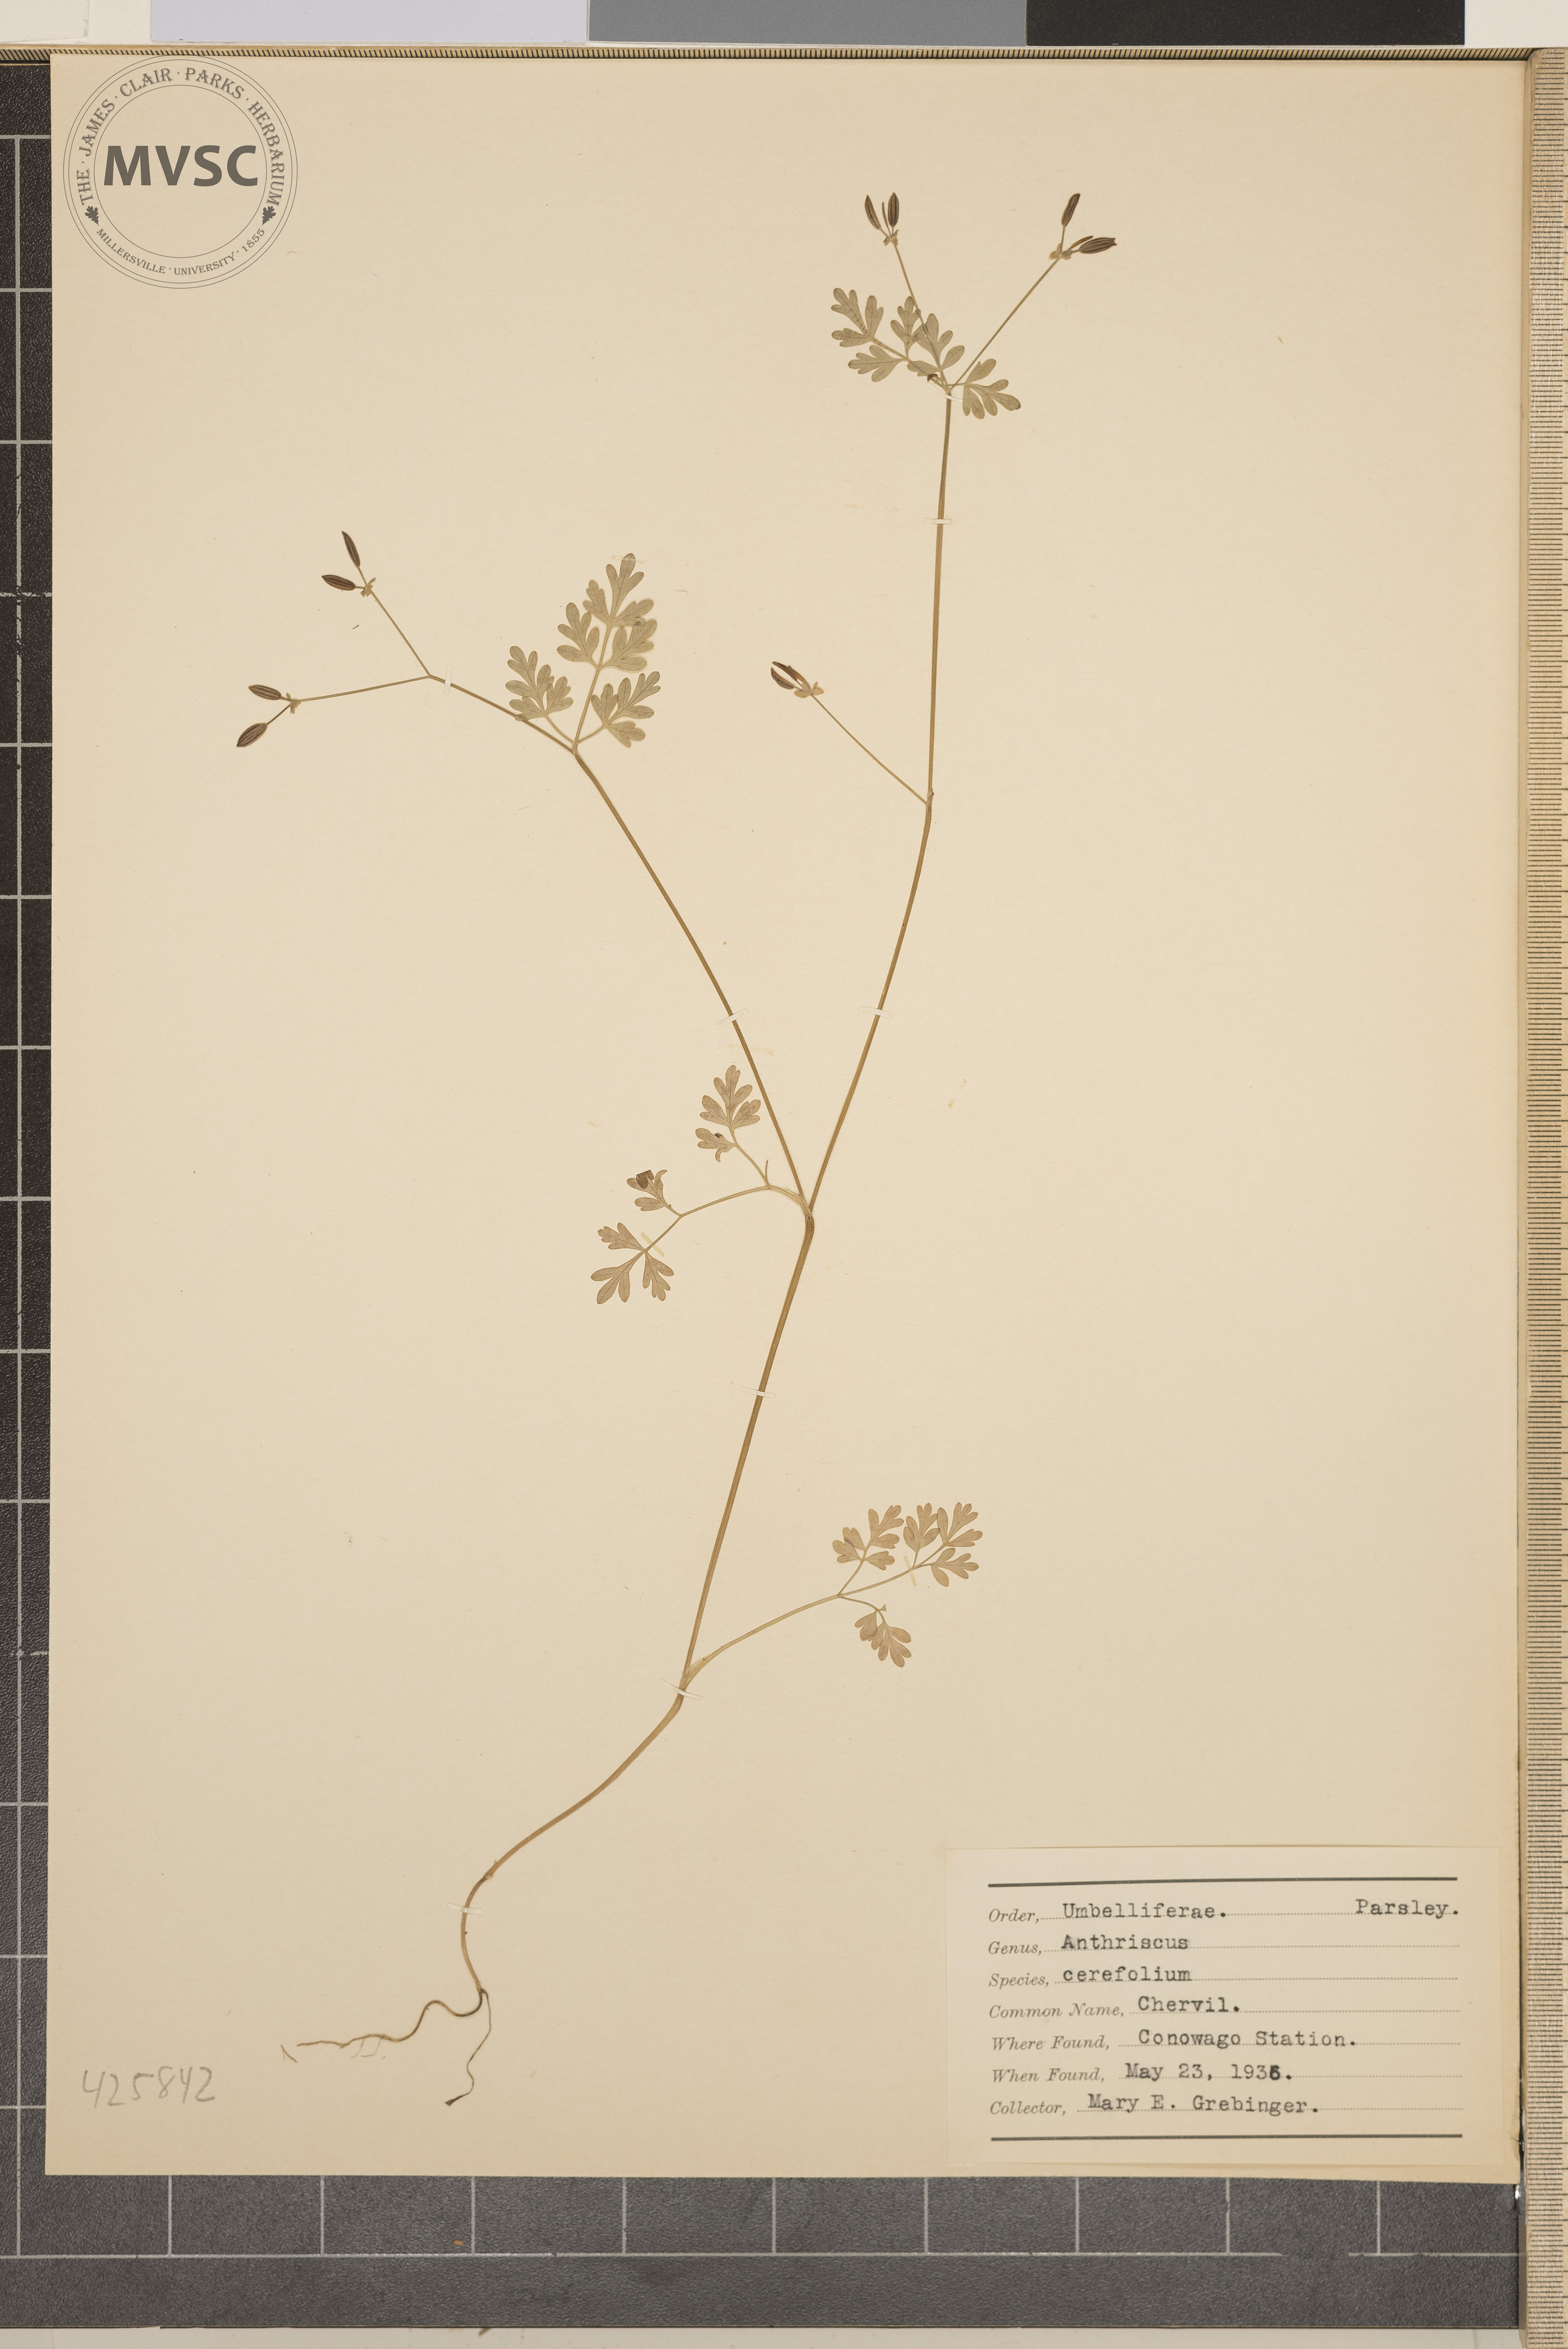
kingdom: Plantae
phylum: Tracheophyta
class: Magnoliopsida
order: Apiales
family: Apiaceae
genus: Anthriscus
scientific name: Anthriscus cerefolium
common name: Chervil
